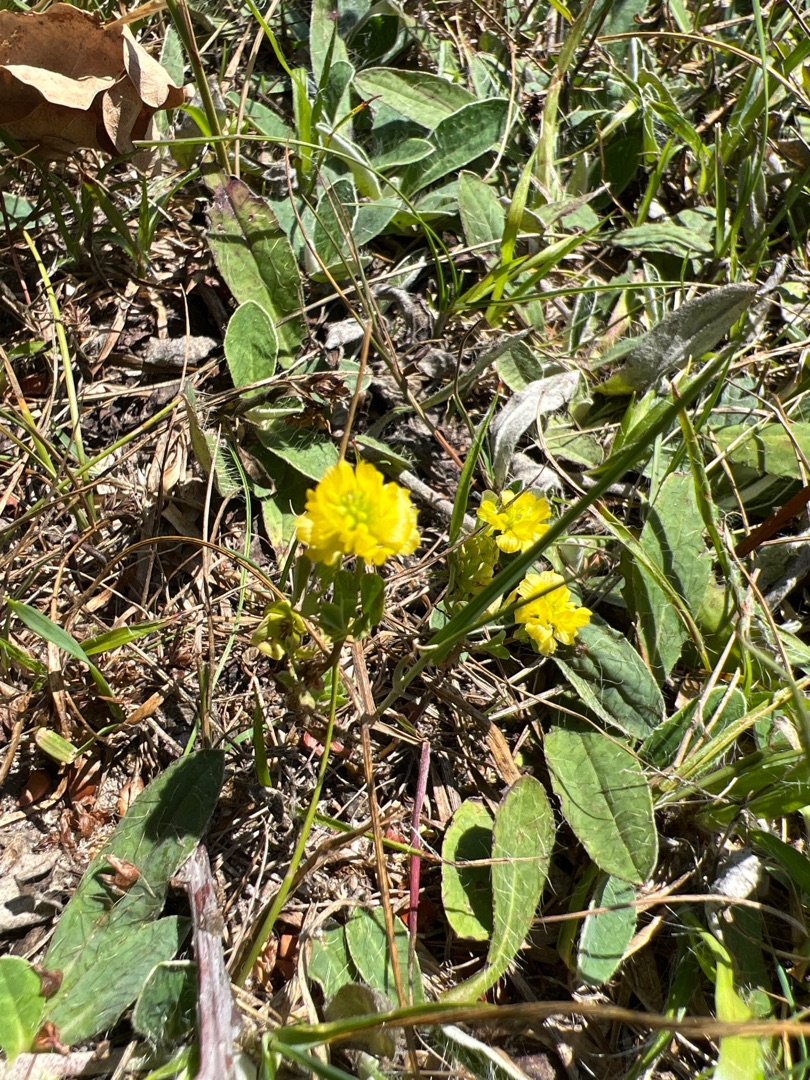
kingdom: Plantae
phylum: Tracheophyta
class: Magnoliopsida
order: Fabales
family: Fabaceae
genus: Trifolium
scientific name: Trifolium campestre
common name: Gul kløver
